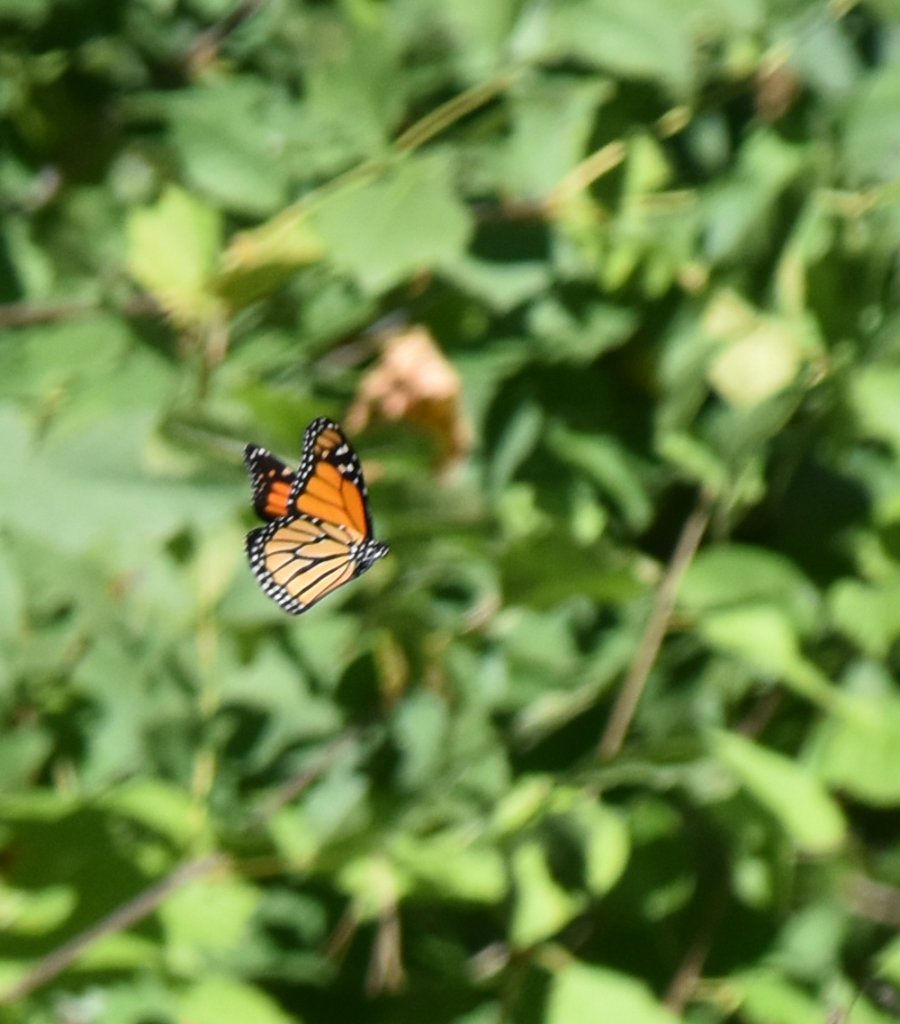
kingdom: Animalia
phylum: Arthropoda
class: Insecta
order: Lepidoptera
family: Nymphalidae
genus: Danaus
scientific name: Danaus plexippus
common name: Monarch
